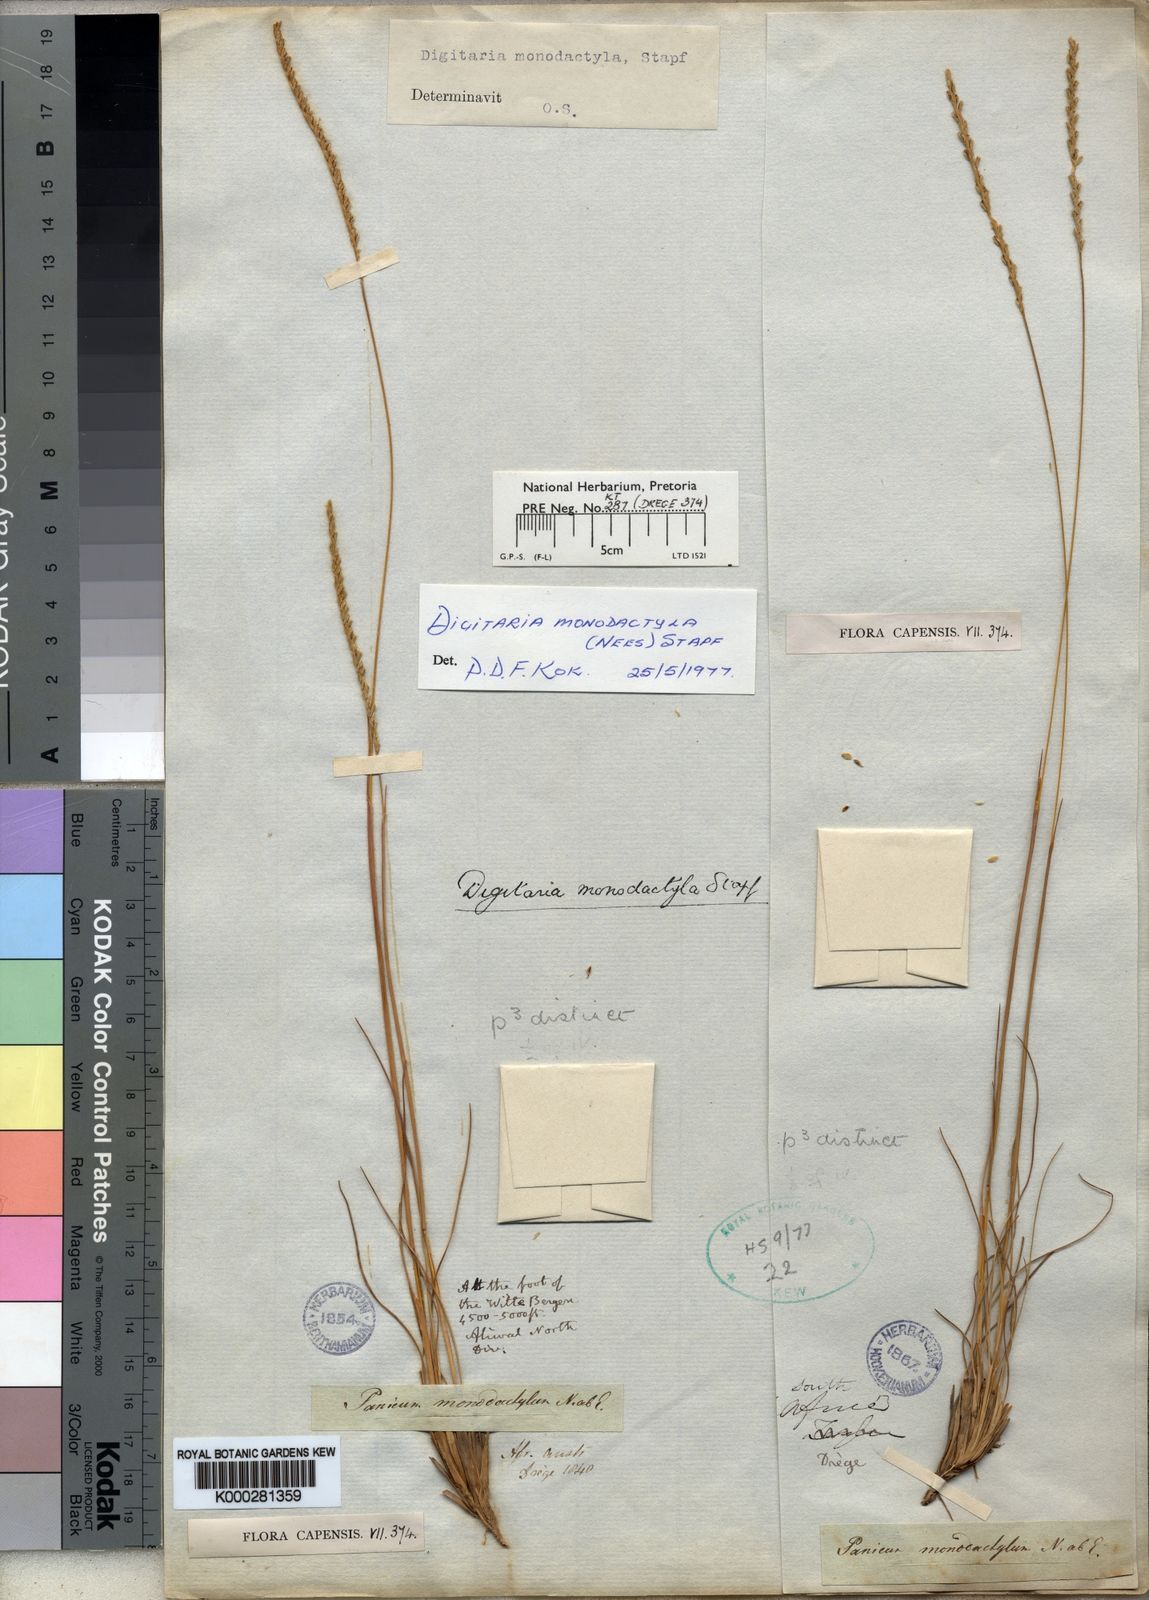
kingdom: Plantae
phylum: Tracheophyta
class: Liliopsida
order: Poales
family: Poaceae
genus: Digitaria
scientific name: Digitaria monodactyla
